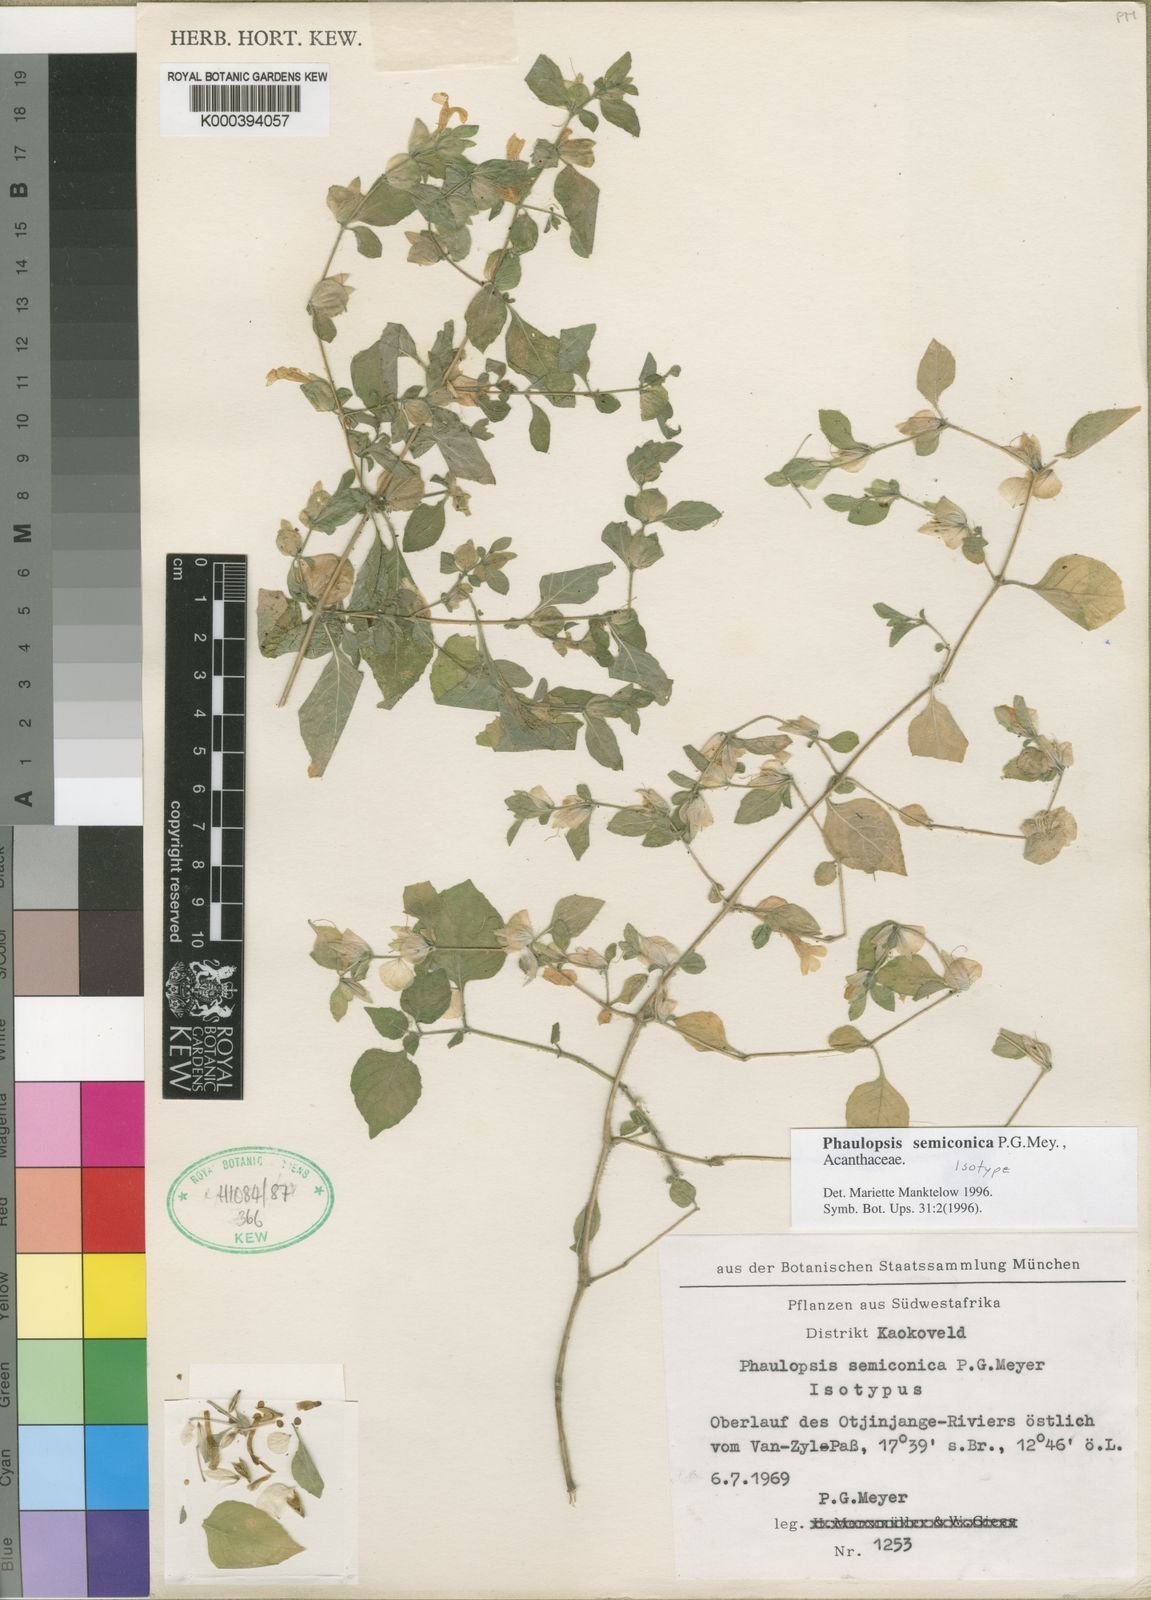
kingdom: Plantae
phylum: Tracheophyta
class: Magnoliopsida
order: Lamiales
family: Acanthaceae
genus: Phaulopsis
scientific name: Phaulopsis semiconica
